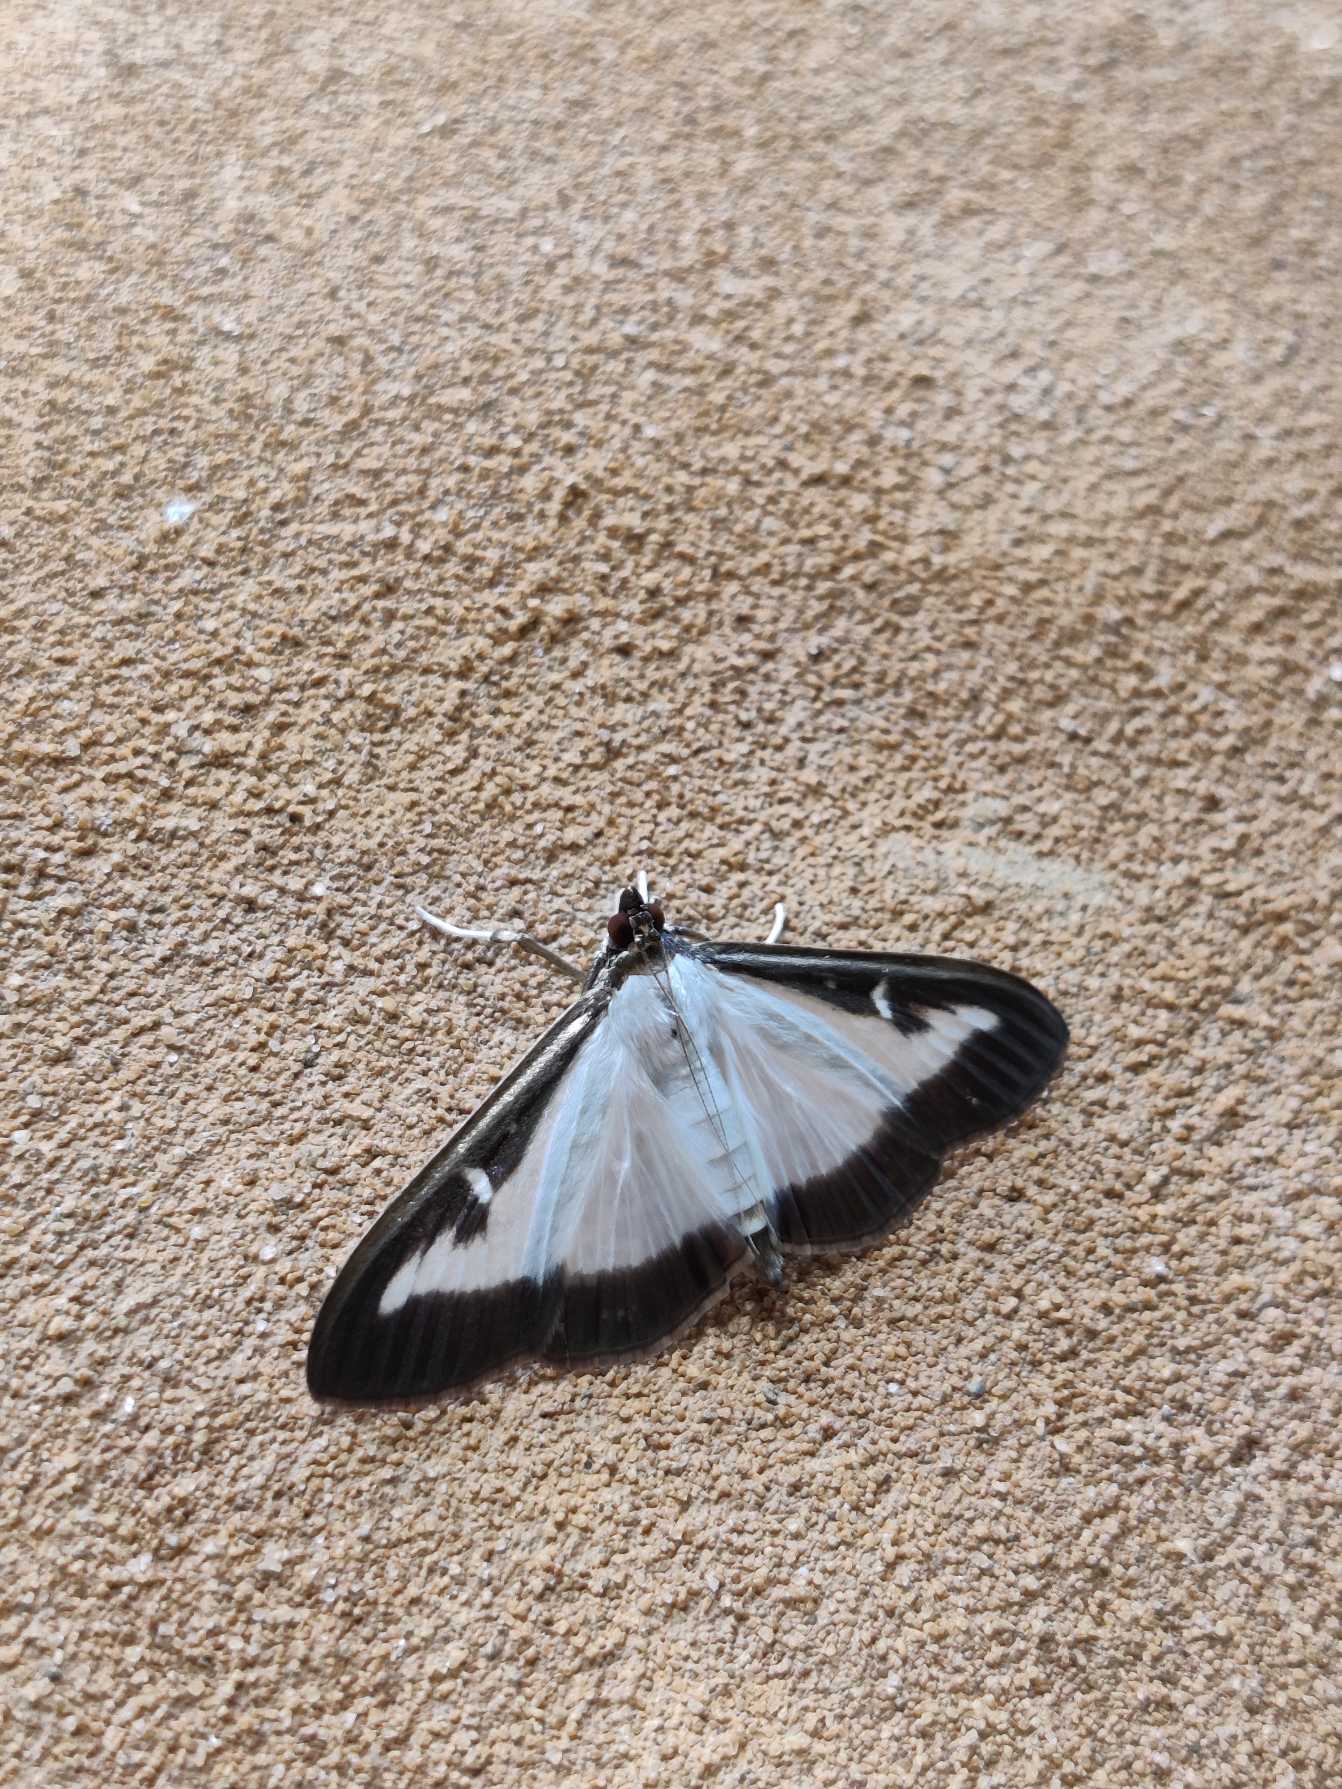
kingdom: Animalia
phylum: Arthropoda
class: Insecta
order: Lepidoptera
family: Crambidae
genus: Cydalima
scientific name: Cydalima perspectalis
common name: Buksbomhalvmøl
